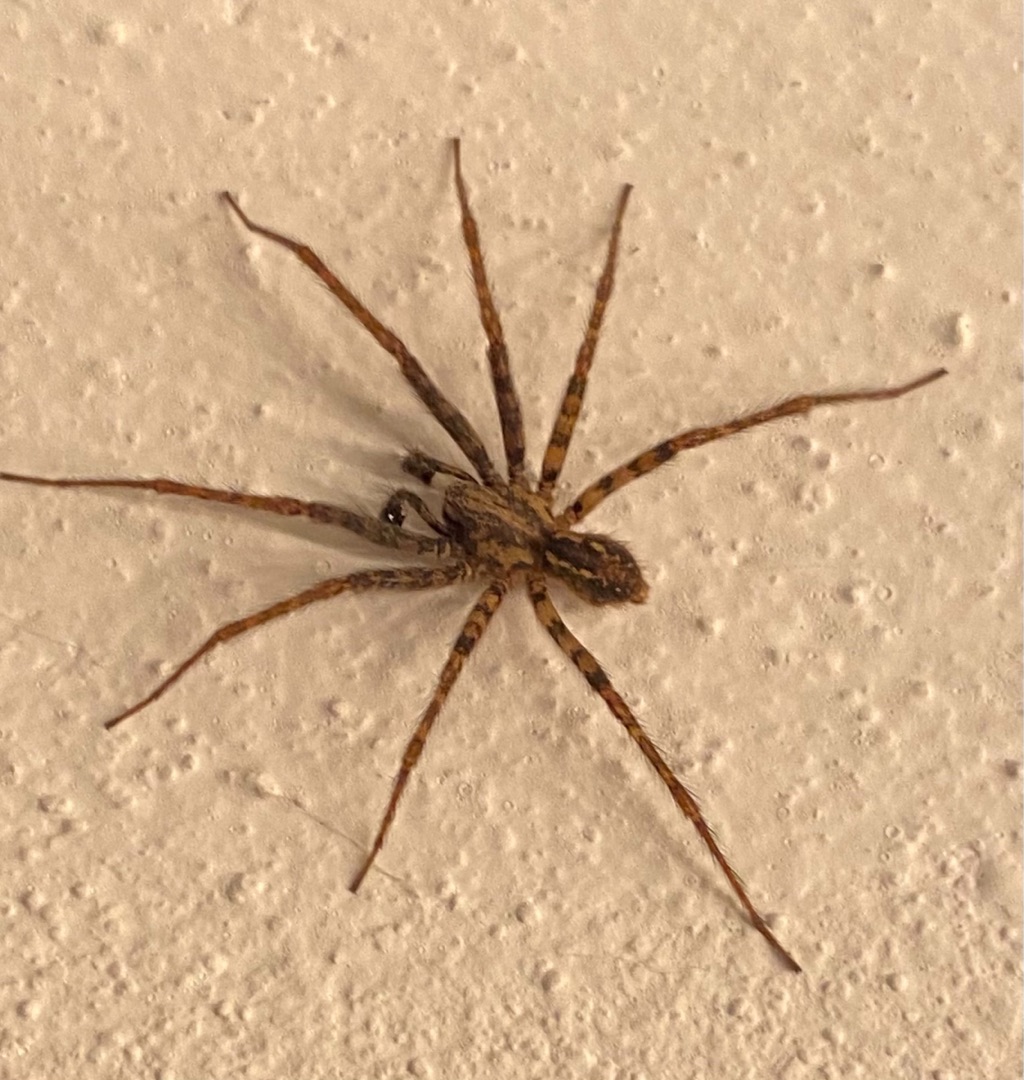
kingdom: Animalia
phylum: Arthropoda
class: Arachnida
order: Araneae
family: Agelenidae
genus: Tegenaria
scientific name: Tegenaria ferruginea
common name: Rustrød husedderkop
